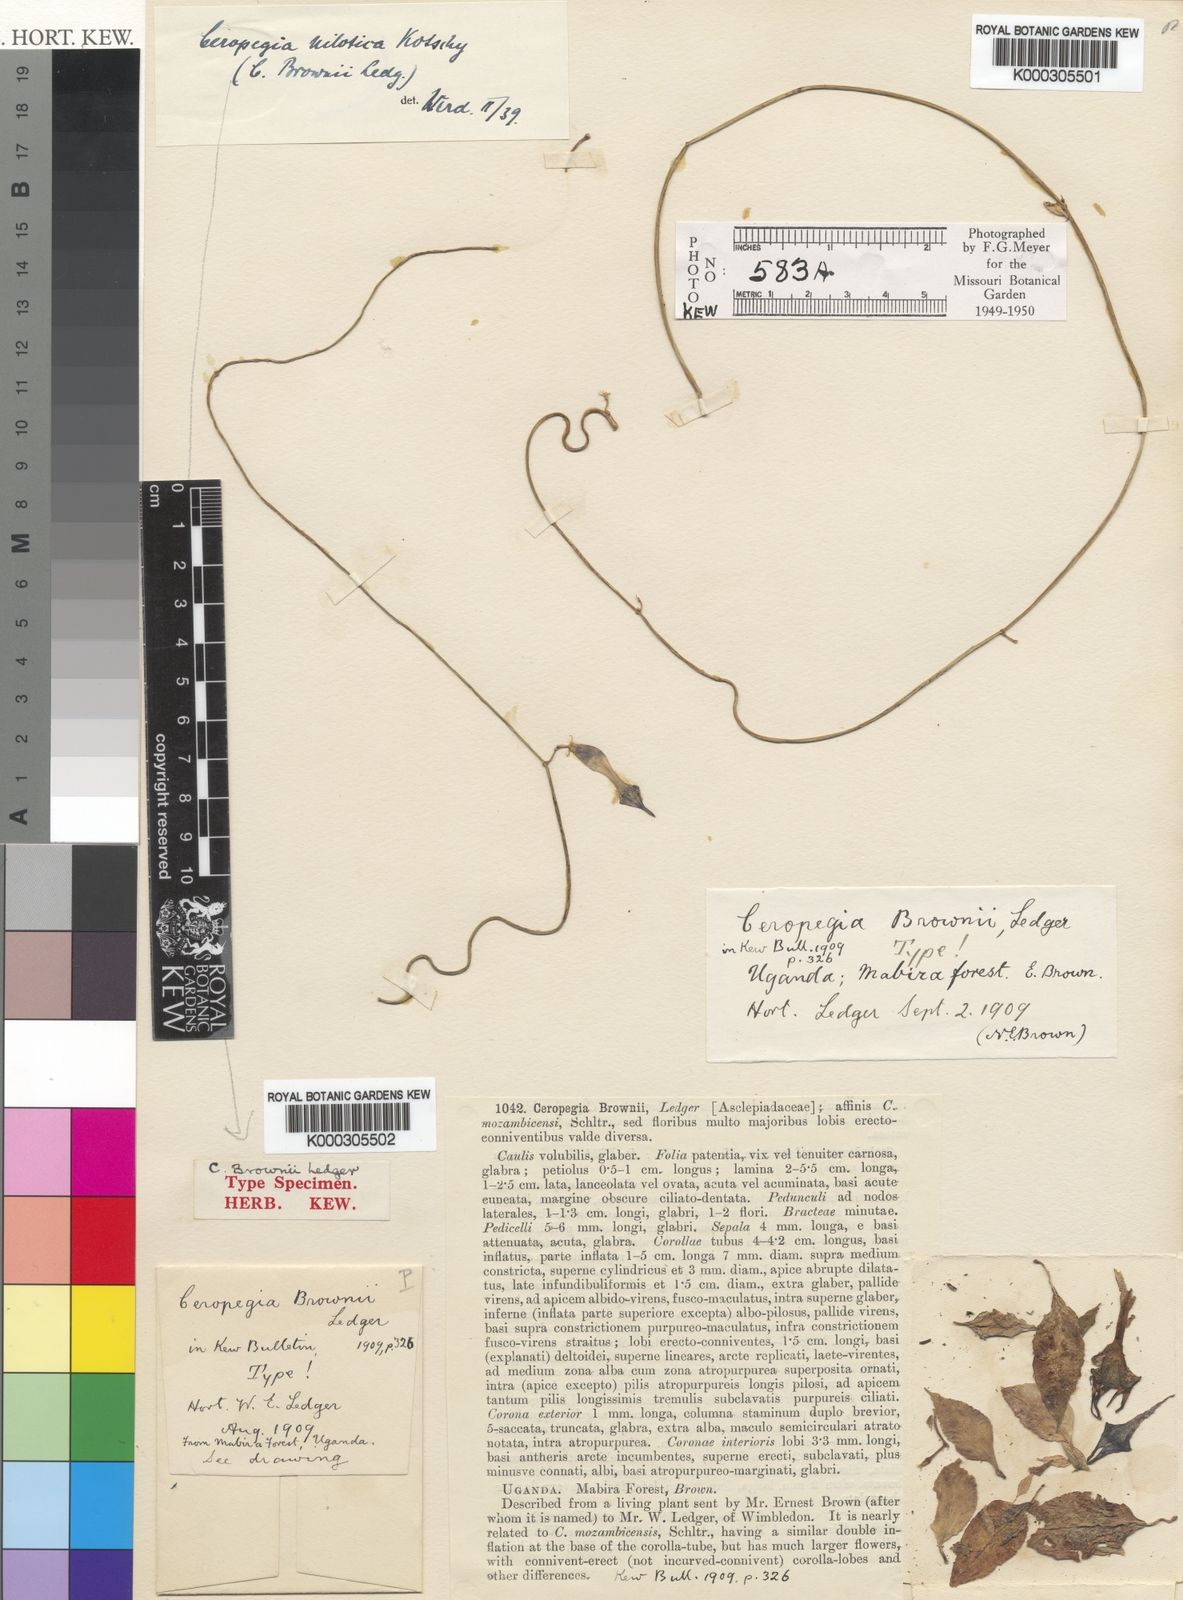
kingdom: Plantae
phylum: Tracheophyta
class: Magnoliopsida
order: Gentianales
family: Apocynaceae
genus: Ceropegia
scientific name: Ceropegia denticulata
